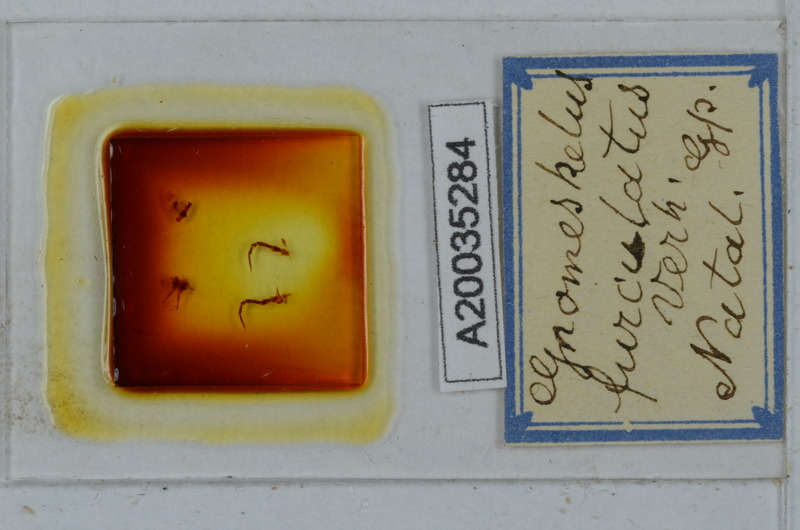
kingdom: Animalia
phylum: Arthropoda
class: Diplopoda
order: Polydesmida
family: Dalodesmidae
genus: Gnomeskelus
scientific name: Gnomeskelus furculatus
